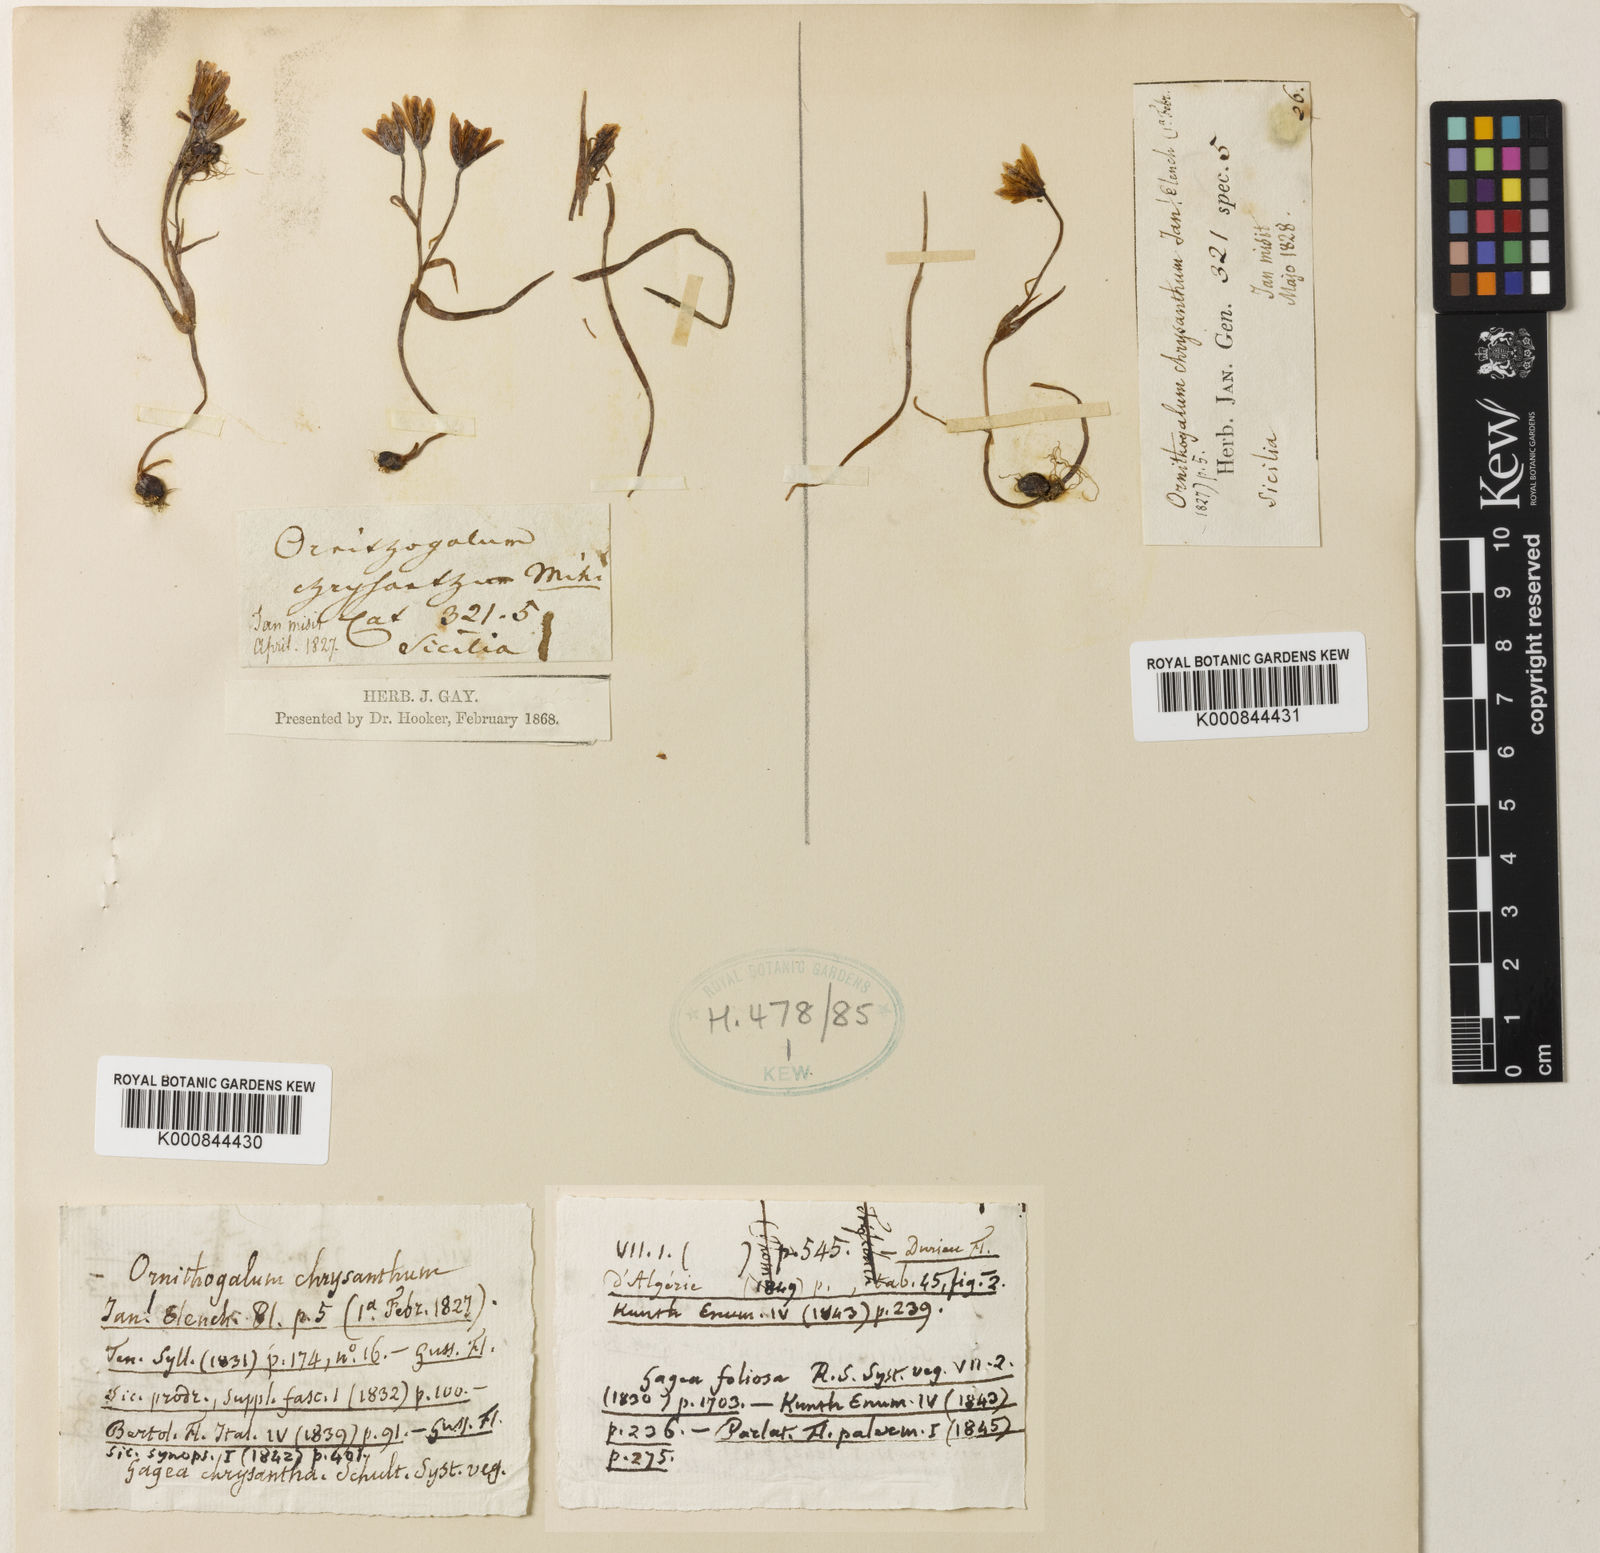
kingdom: Plantae
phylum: Tracheophyta
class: Liliopsida
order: Liliales
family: Liliaceae
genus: Gagea
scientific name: Gagea bohemica
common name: Early star-of-bethlehem
